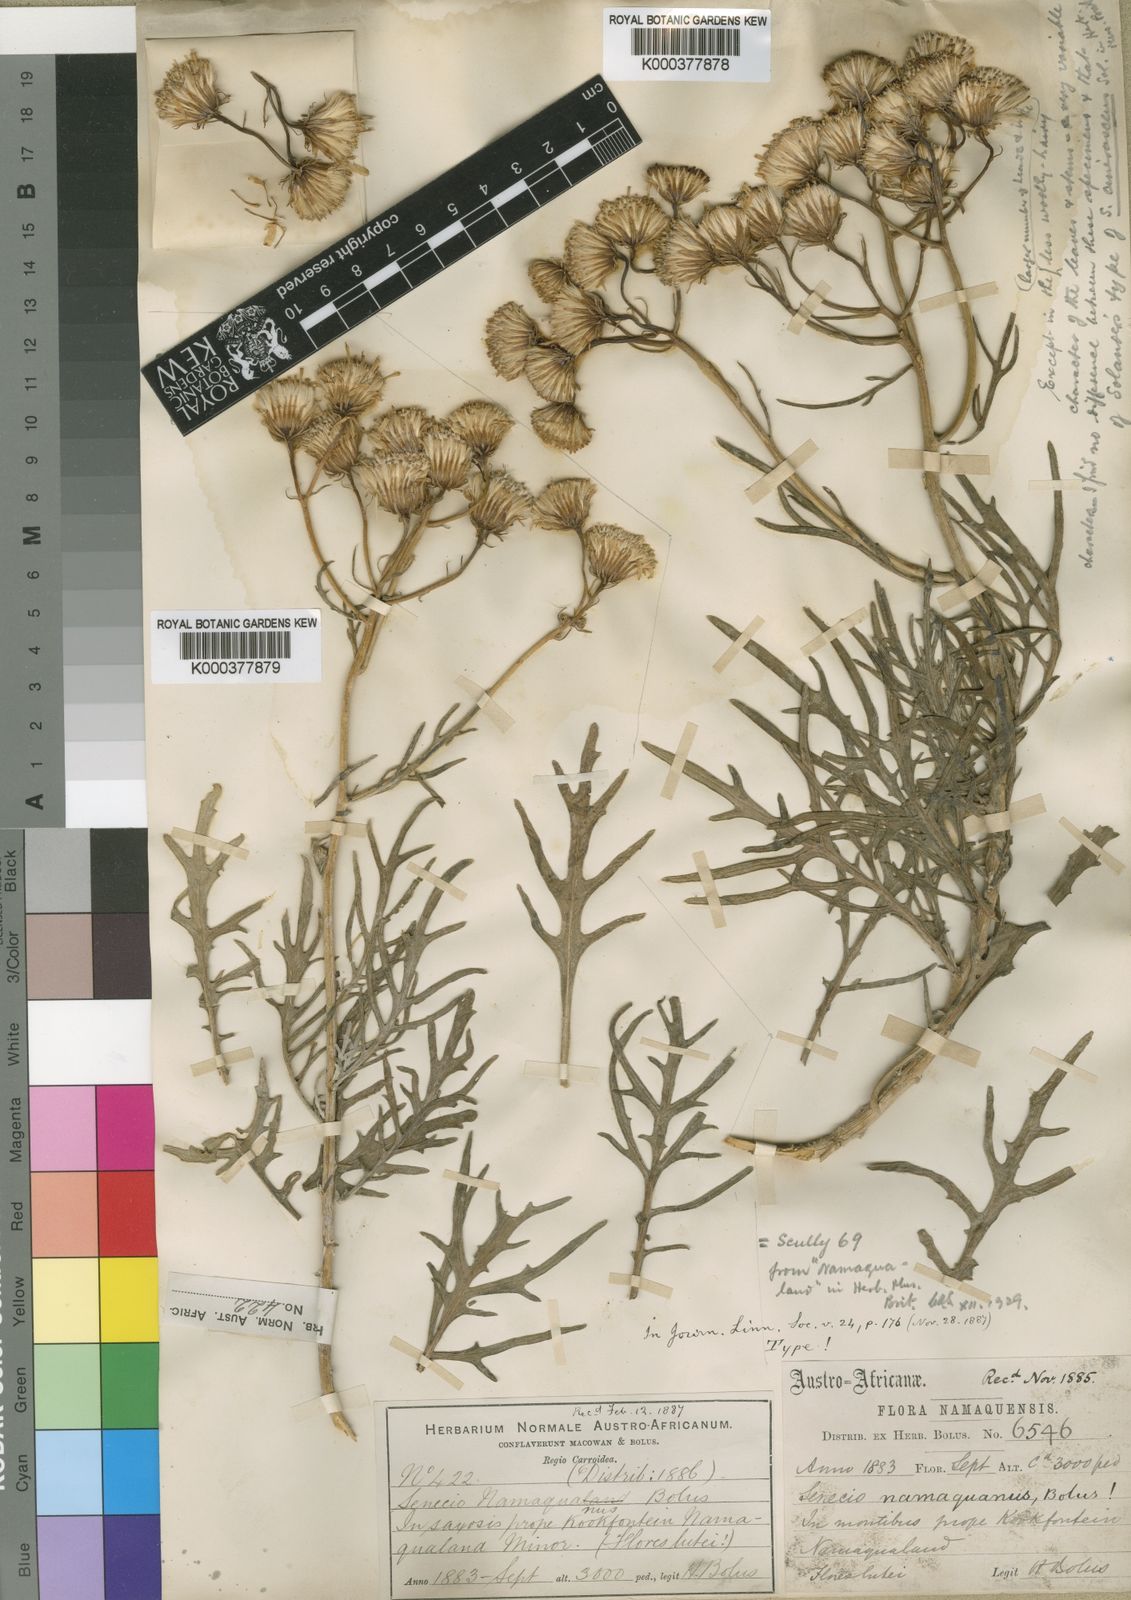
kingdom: Plantae
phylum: Tracheophyta
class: Magnoliopsida
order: Asterales
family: Asteraceae
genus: Senecio
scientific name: Senecio cinerascens
